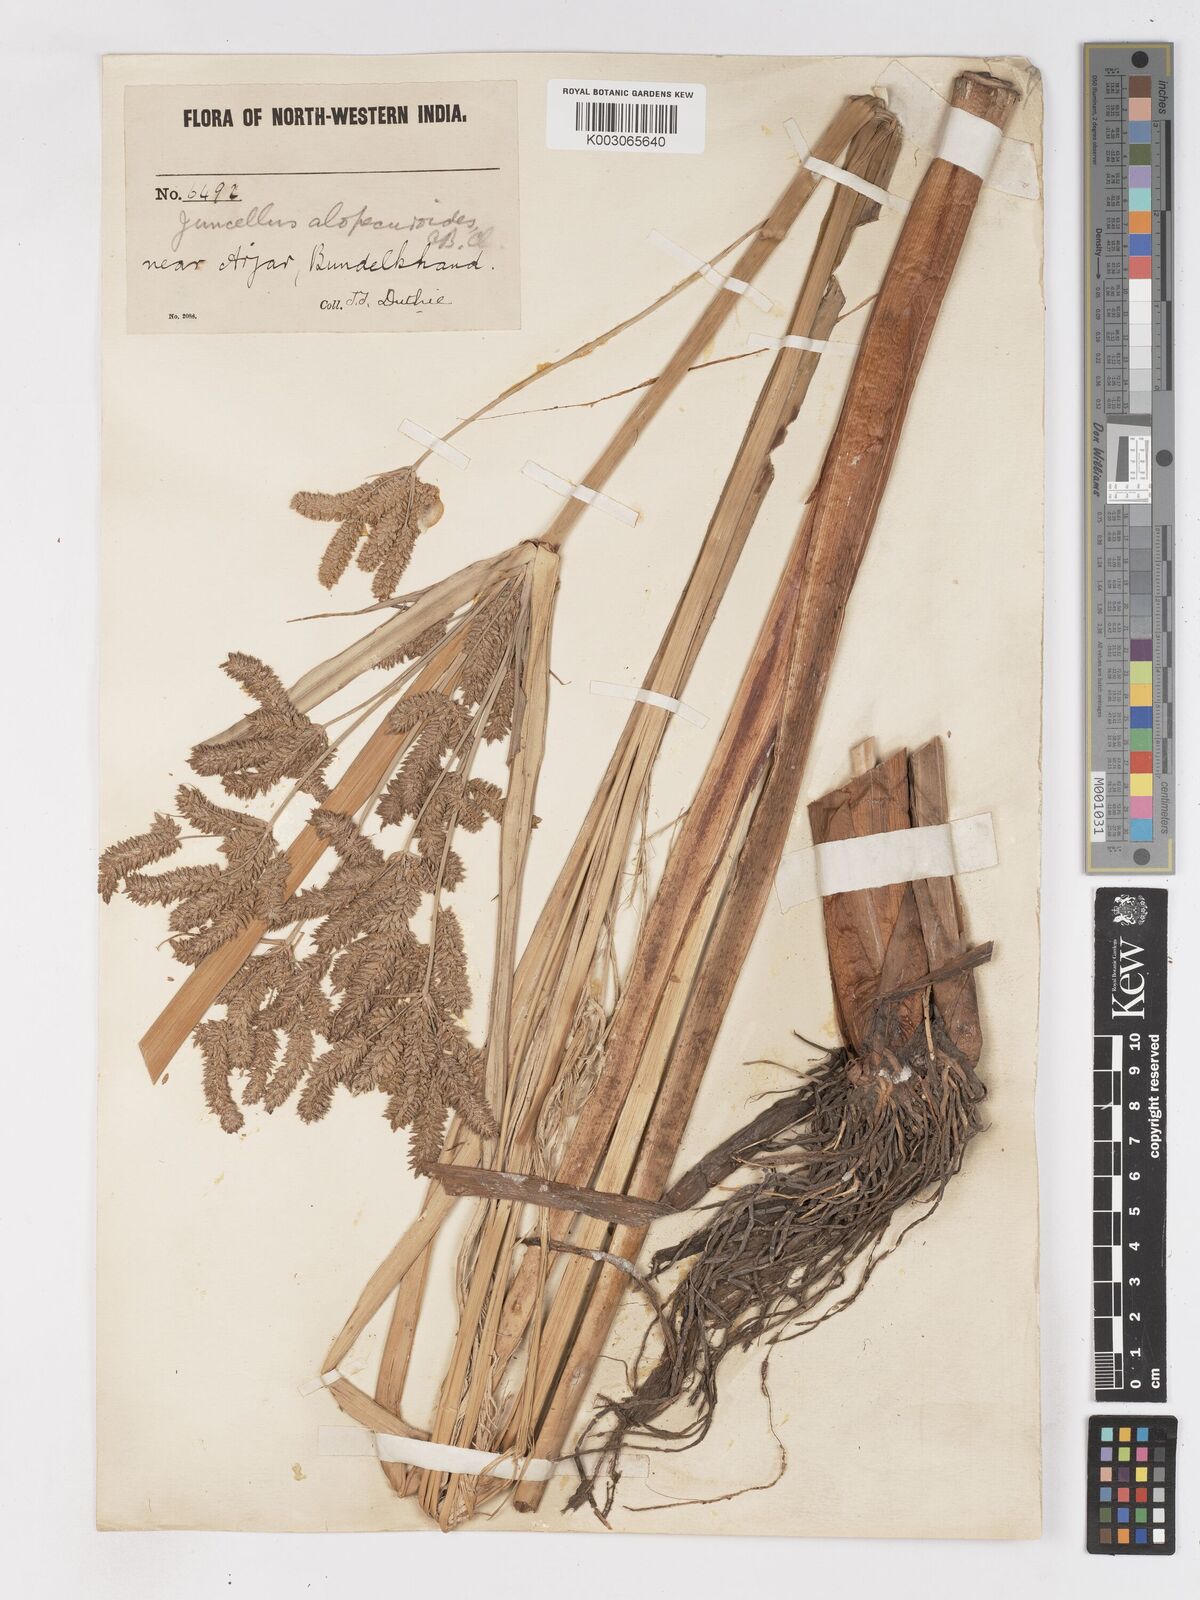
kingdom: Plantae
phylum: Tracheophyta
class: Liliopsida
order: Poales
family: Cyperaceae
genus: Cyperus
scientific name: Cyperus alopecuroides
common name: Foxtail flatsedge
